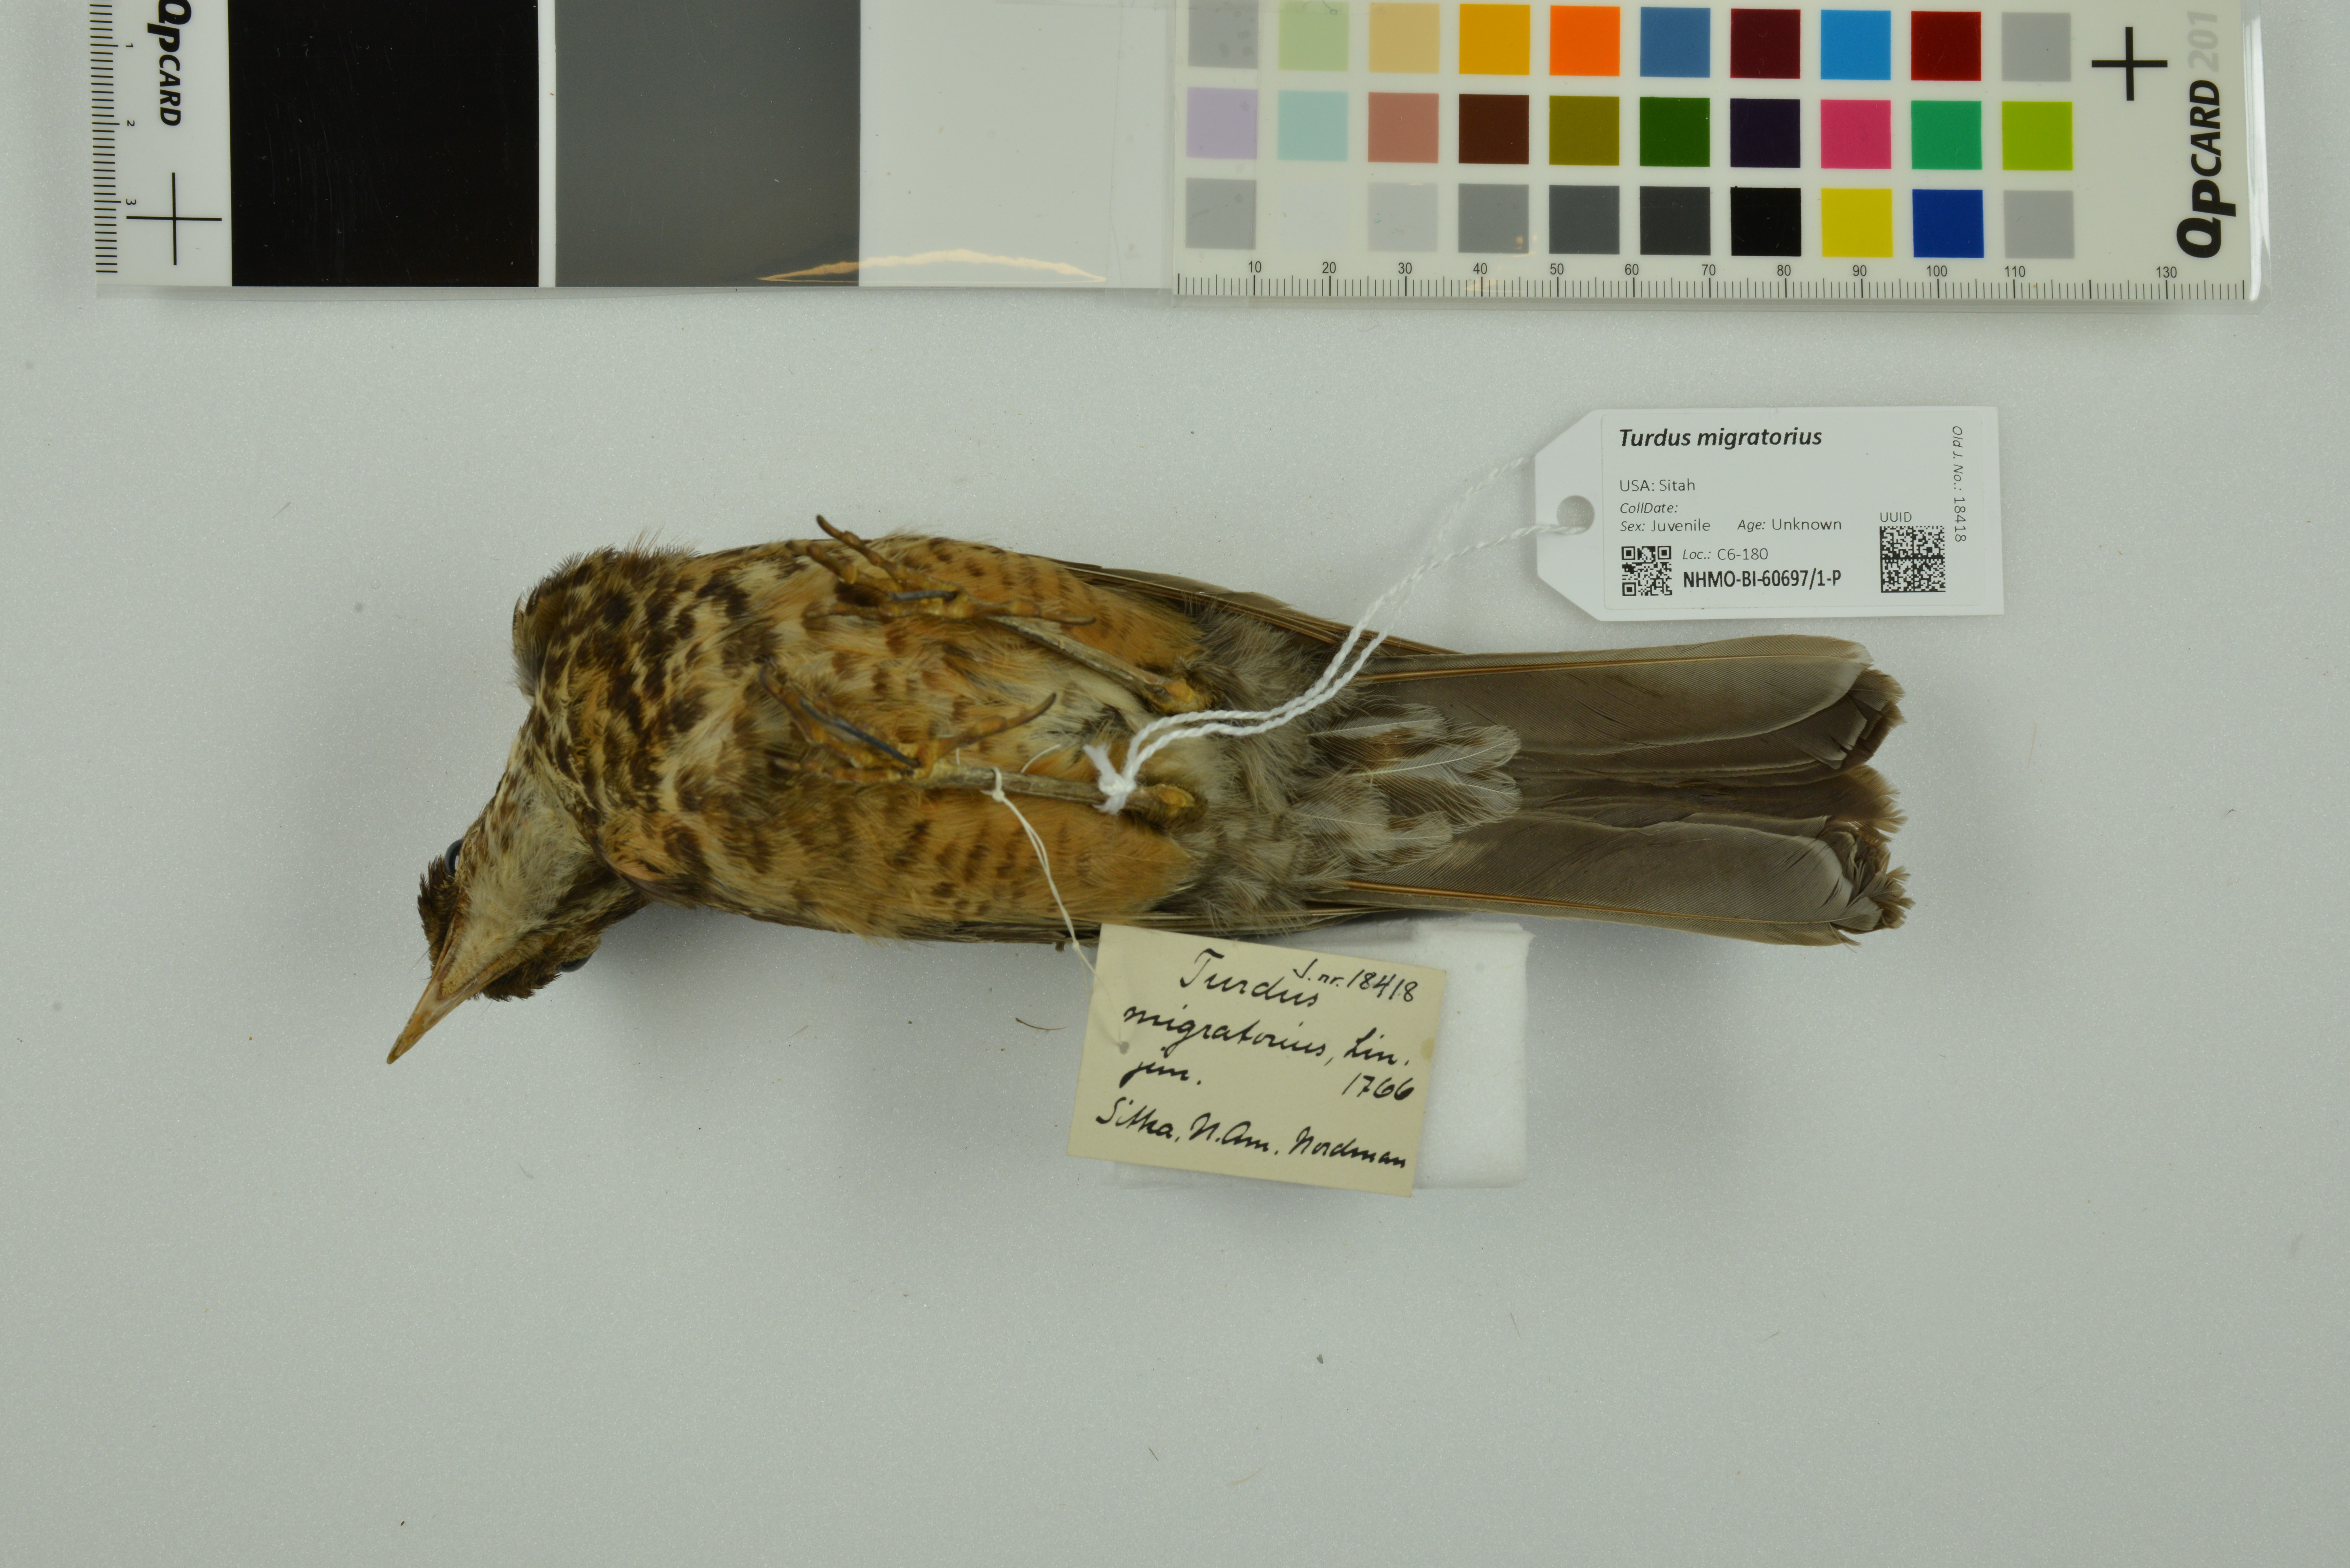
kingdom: Animalia
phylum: Chordata
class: Aves
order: Passeriformes
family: Turdidae
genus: Turdus
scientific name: Turdus migratorius
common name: American robin
